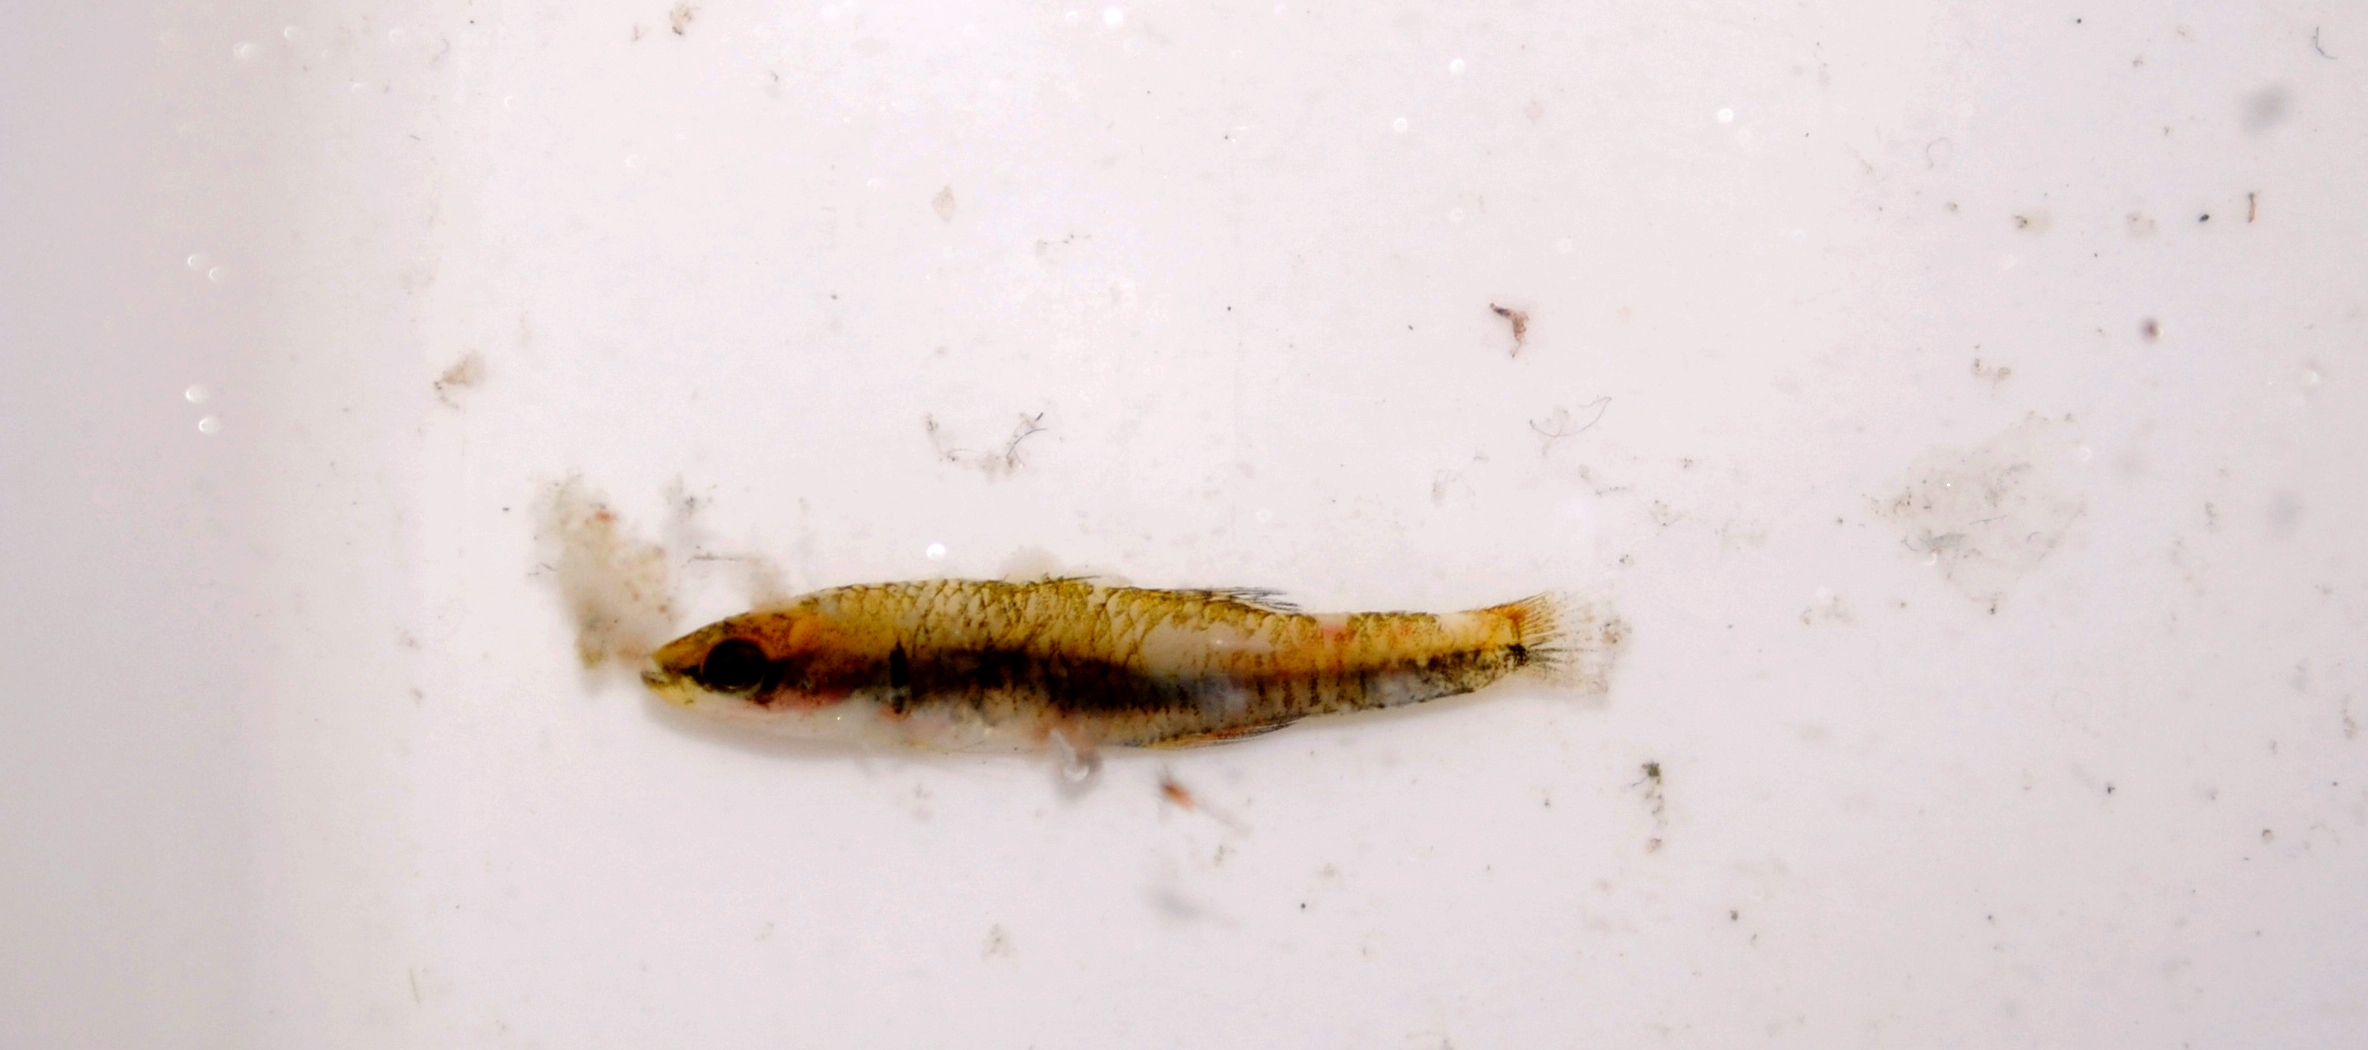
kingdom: Animalia
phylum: Chordata
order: Perciformes
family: Eleotridae
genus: Hypseleotris
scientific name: Hypseleotris cyprinoides
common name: Golden carp-gudgeon
